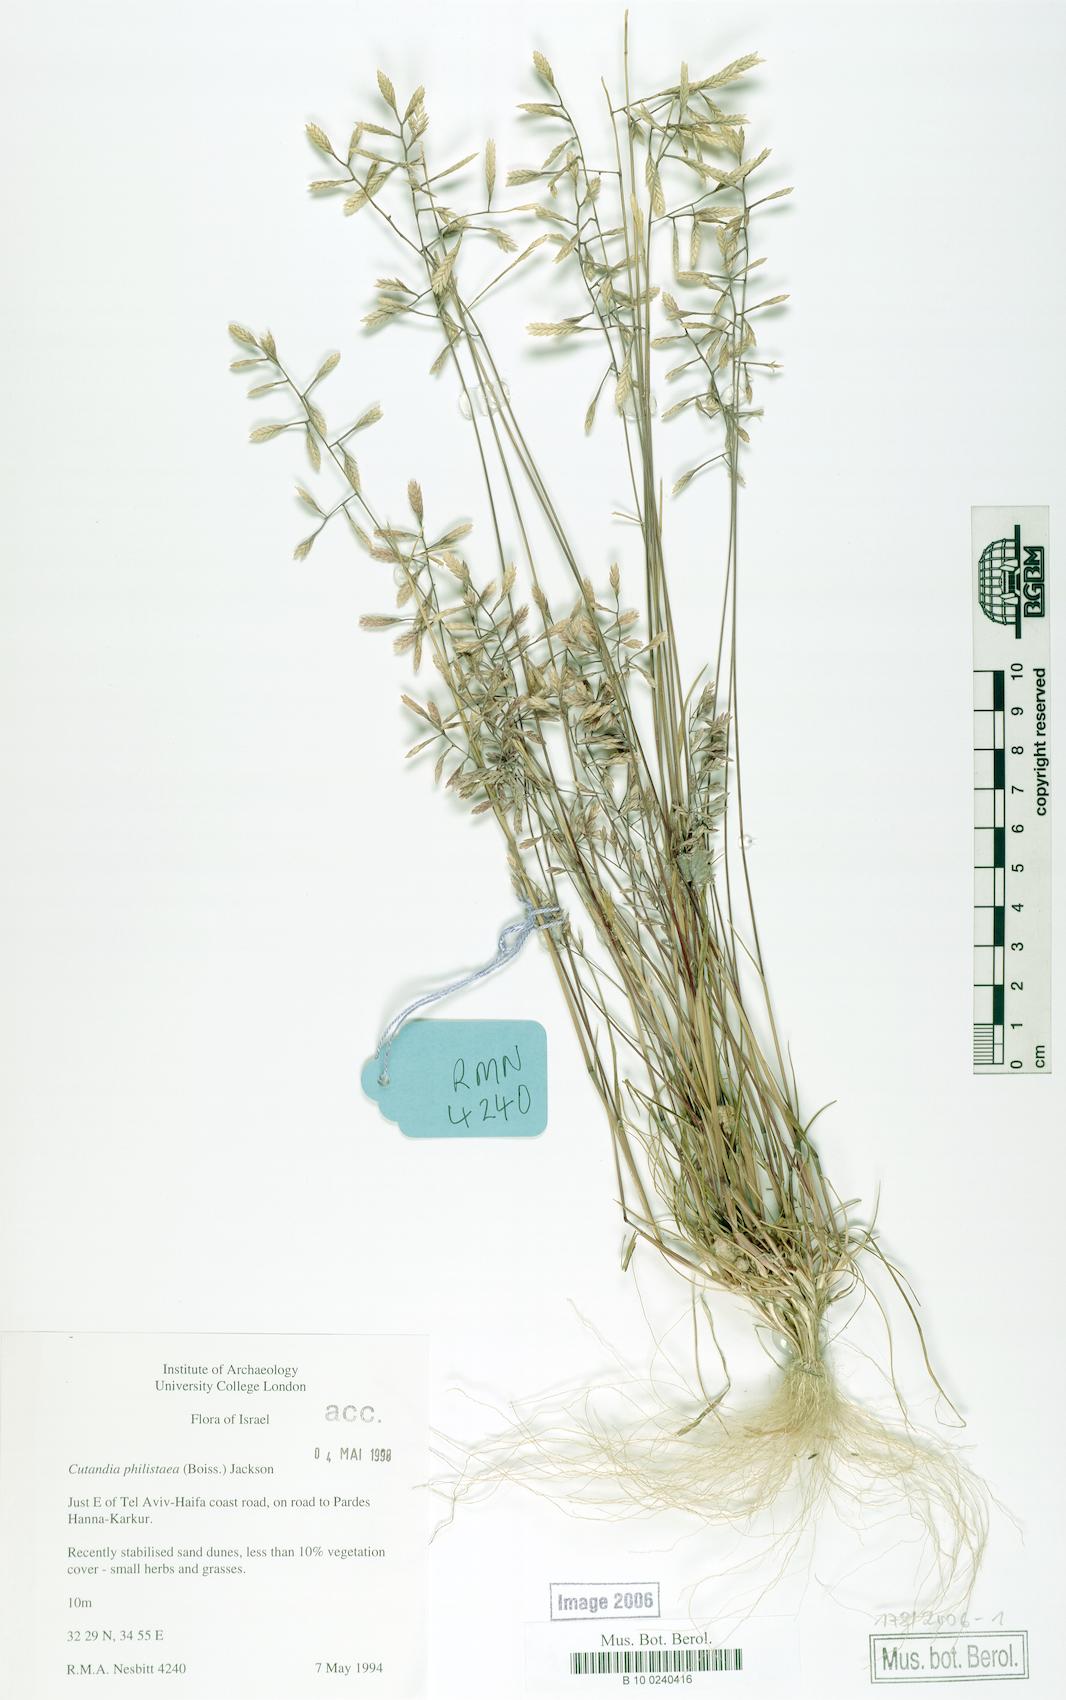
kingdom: Plantae
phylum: Tracheophyta
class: Liliopsida
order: Poales
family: Poaceae
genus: Desmazeria
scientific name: Desmazeria philistaea
